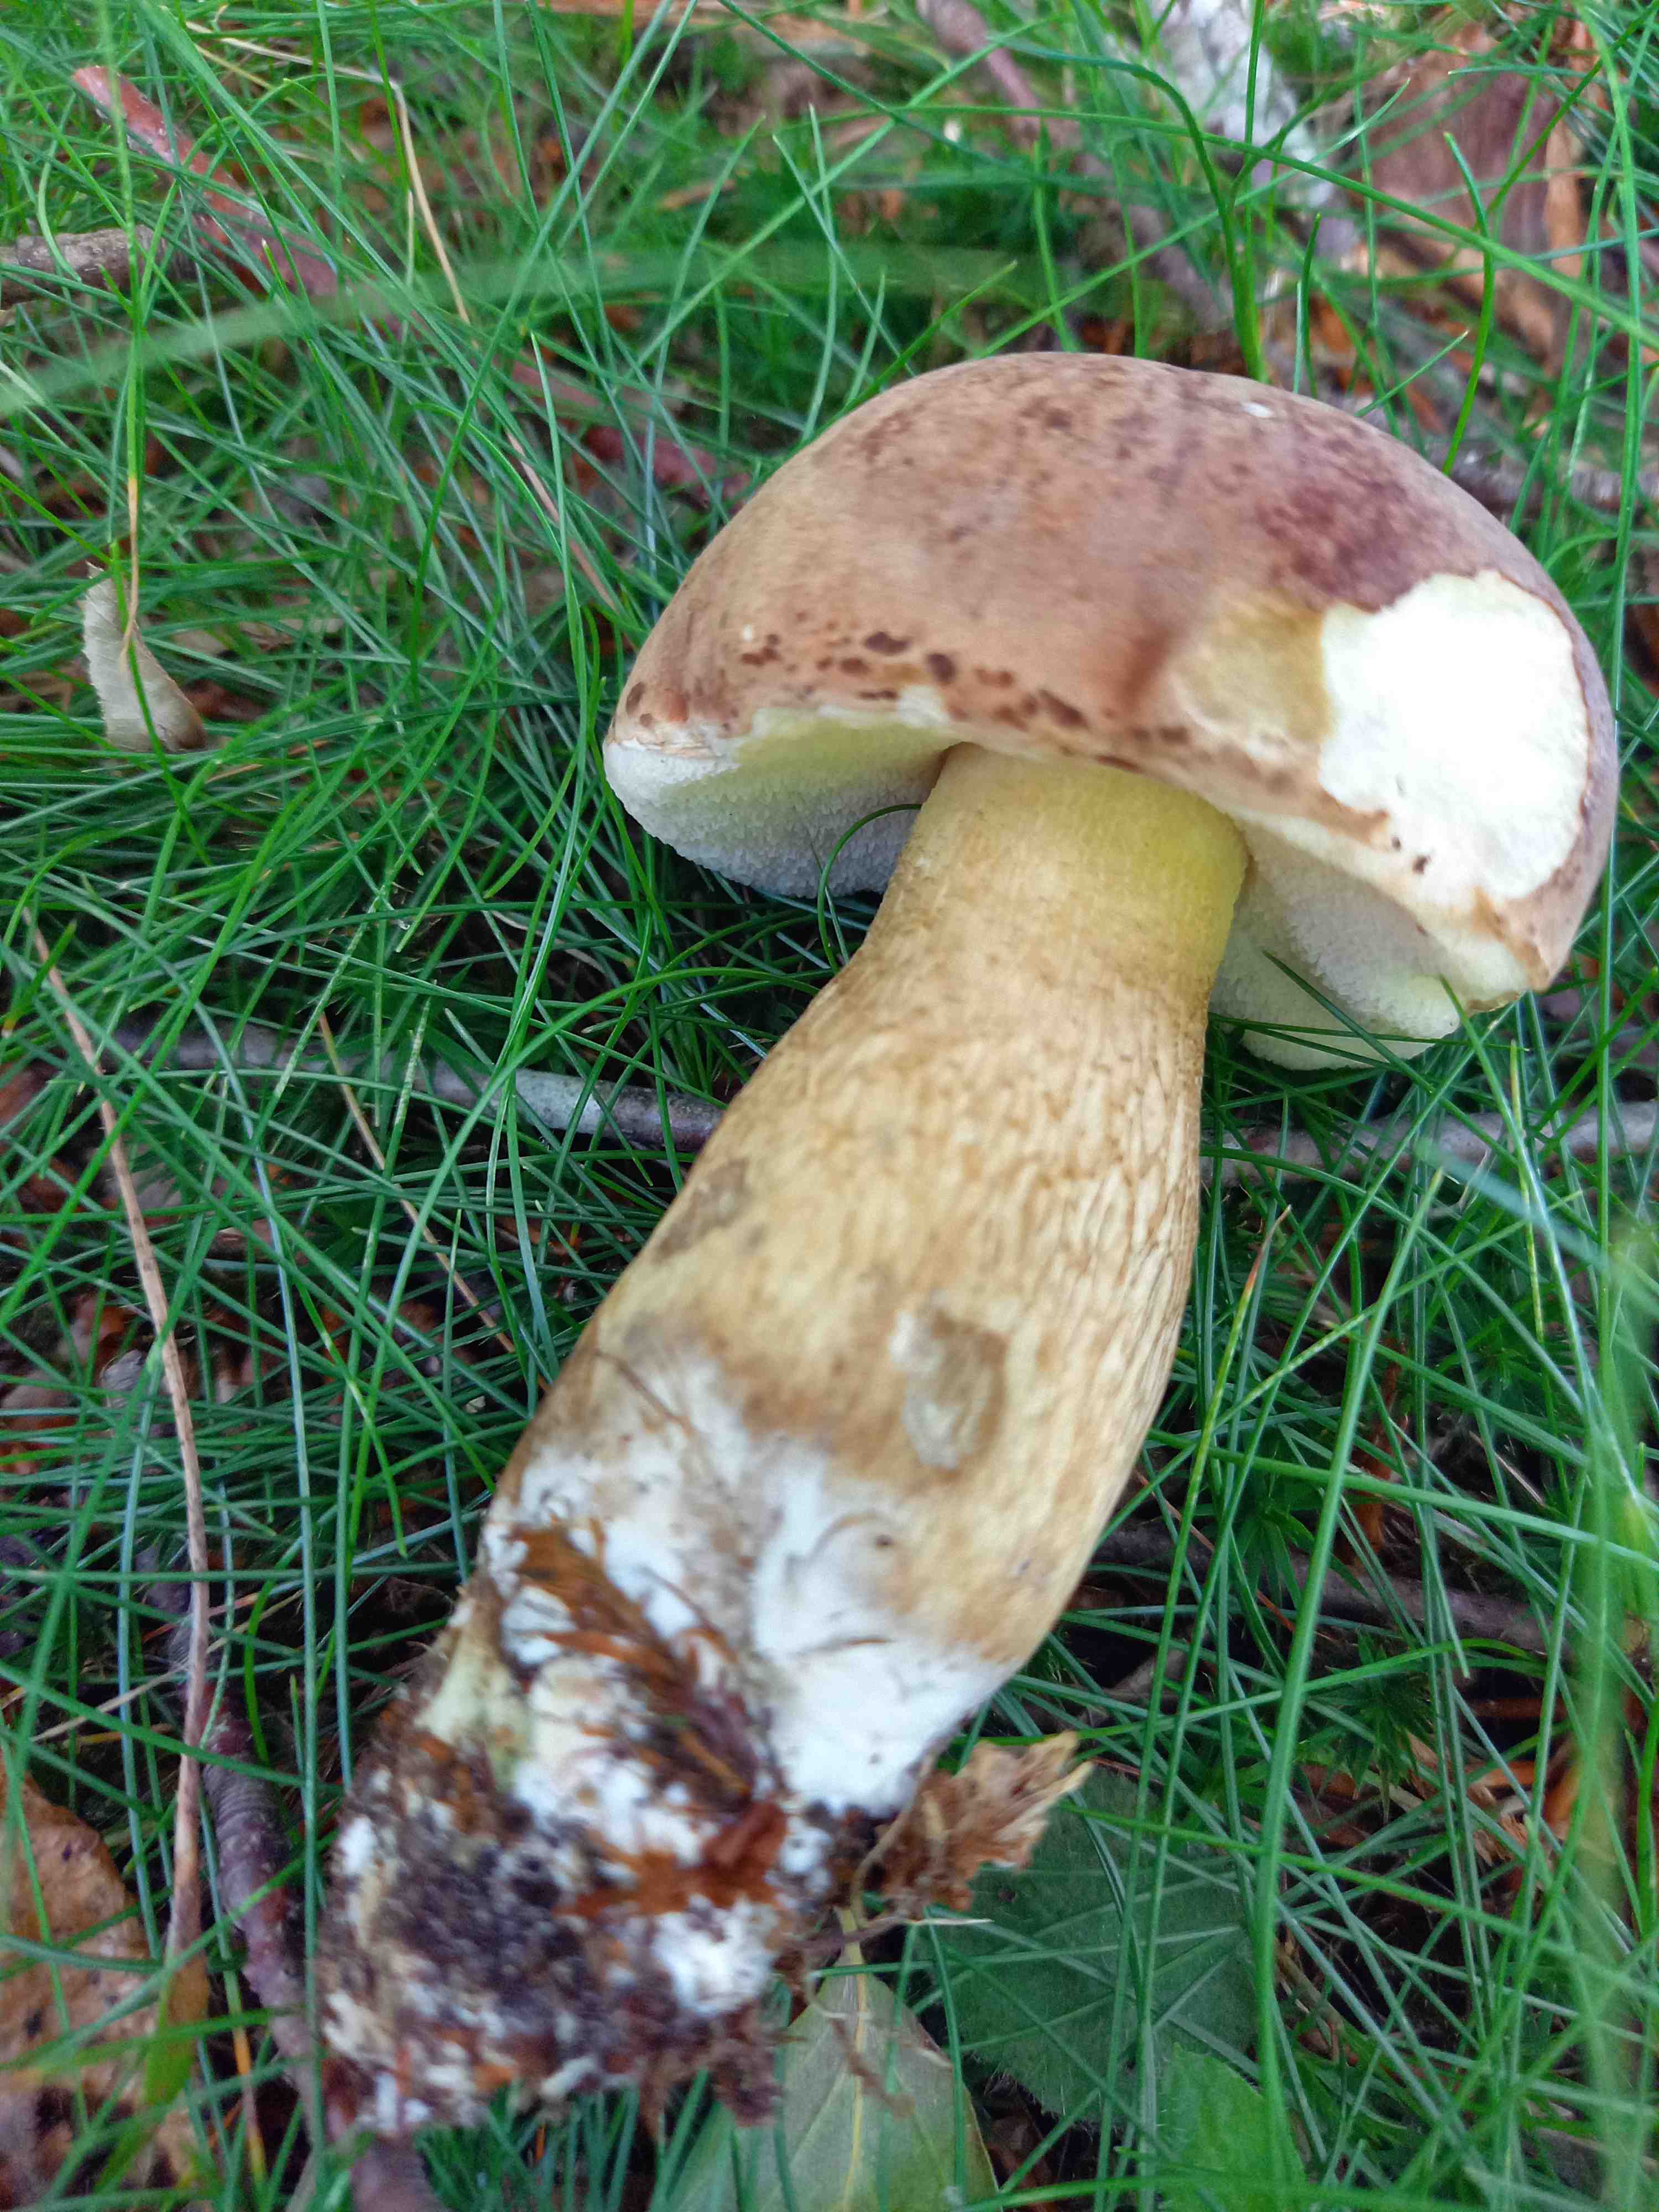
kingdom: Fungi
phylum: Basidiomycota
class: Agaricomycetes
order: Boletales
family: Boletaceae
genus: Tylopilus
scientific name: Tylopilus felleus
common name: galderørhat
